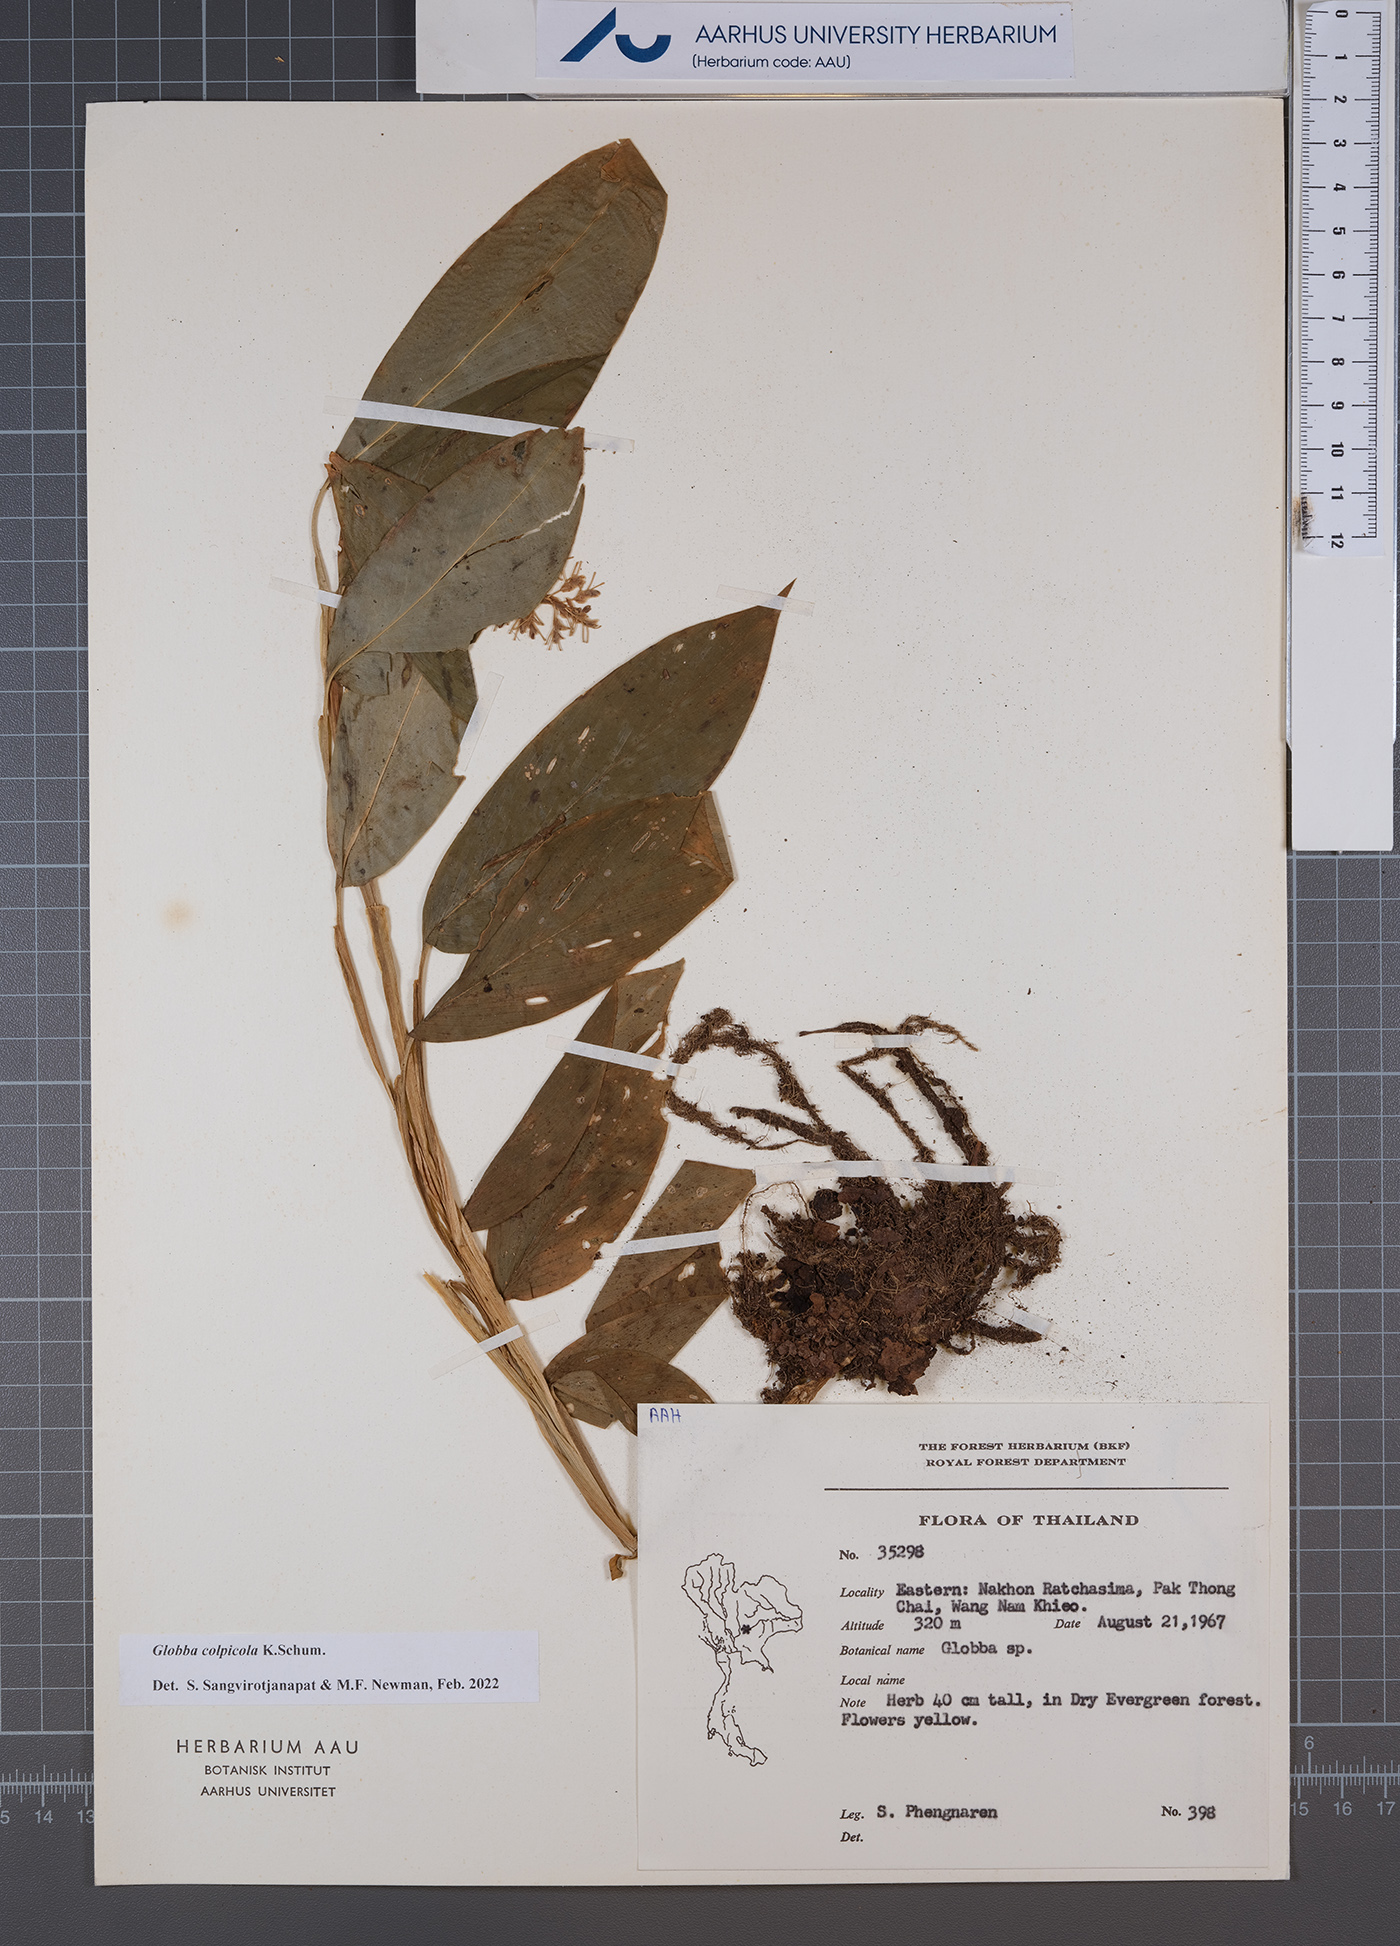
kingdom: Plantae
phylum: Tracheophyta
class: Liliopsida
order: Zingiberales
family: Zingiberaceae
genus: Globba
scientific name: Globba colpicola
